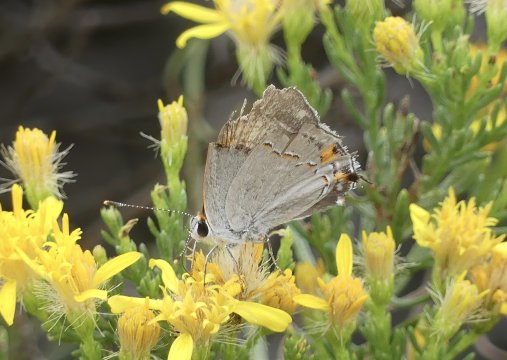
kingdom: Animalia
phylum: Arthropoda
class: Insecta
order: Lepidoptera
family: Lycaenidae
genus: Strymon
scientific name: Strymon melinus
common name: Gray Hairstreak
